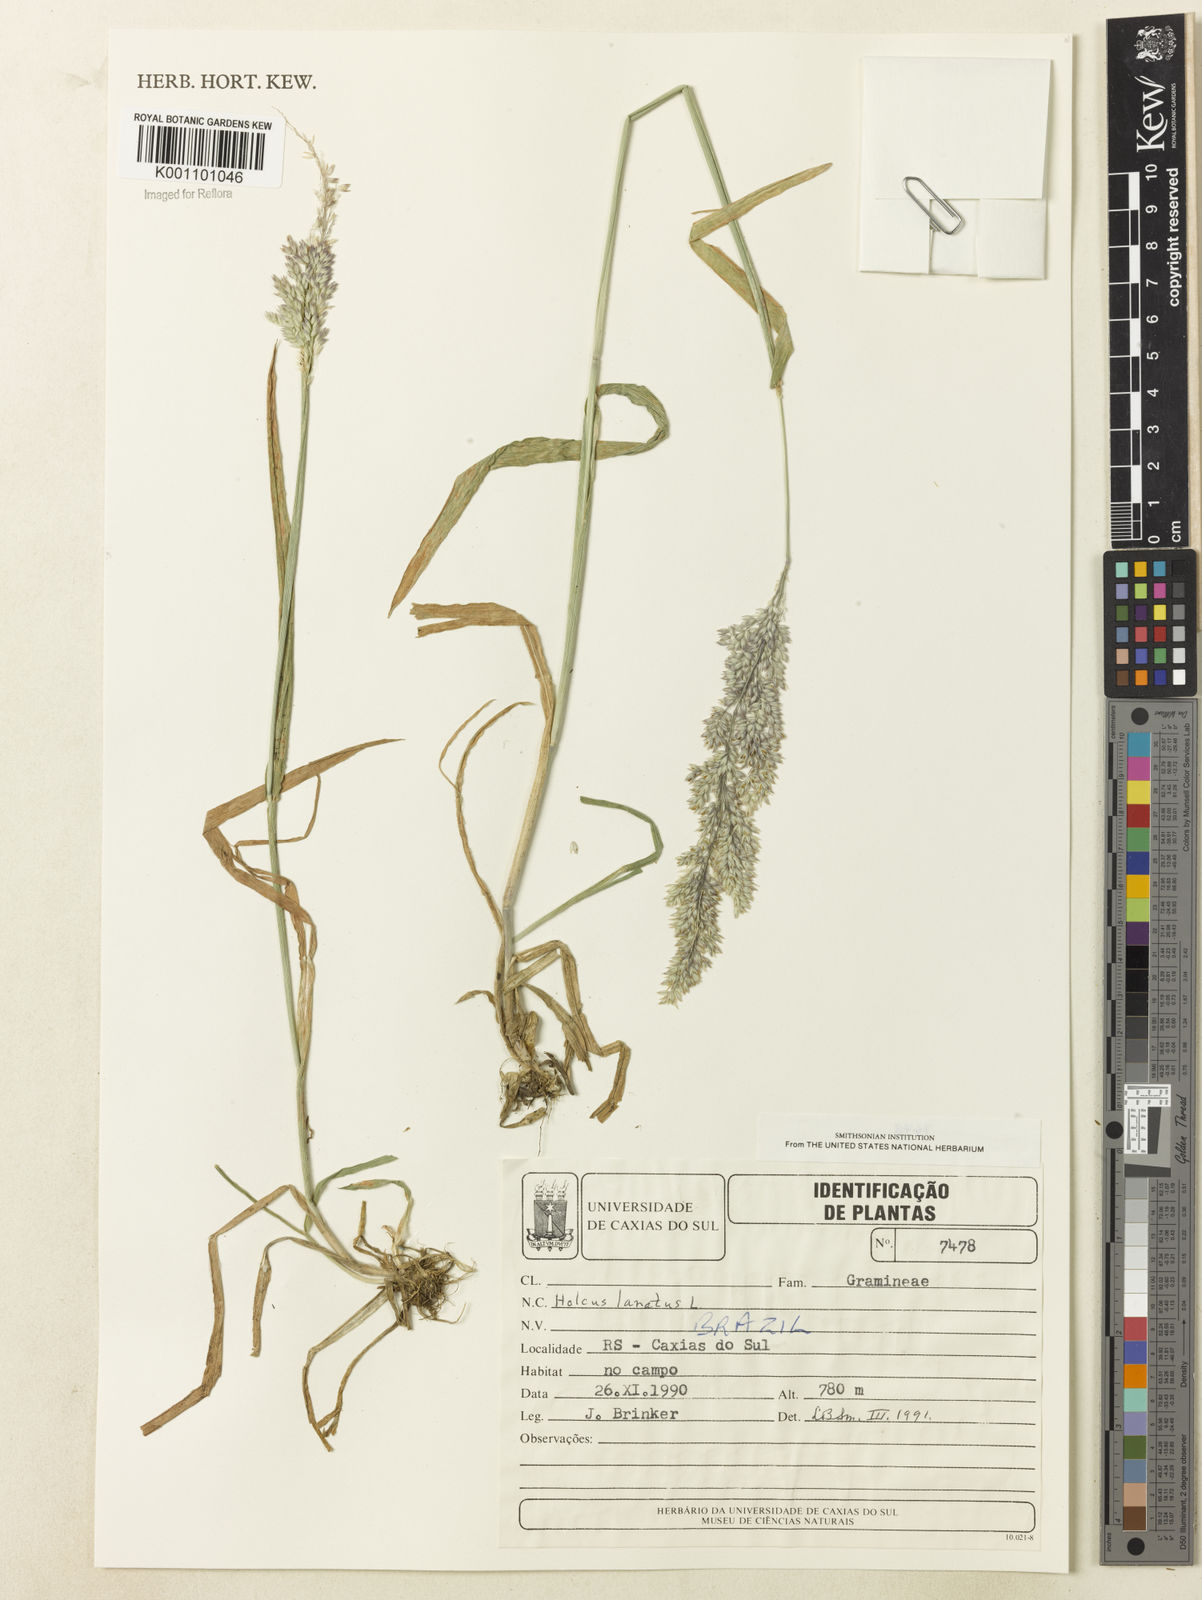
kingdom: Plantae
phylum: Tracheophyta
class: Liliopsida
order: Poales
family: Poaceae
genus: Holcus
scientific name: Holcus lanatus
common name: Yorkshire-fog
